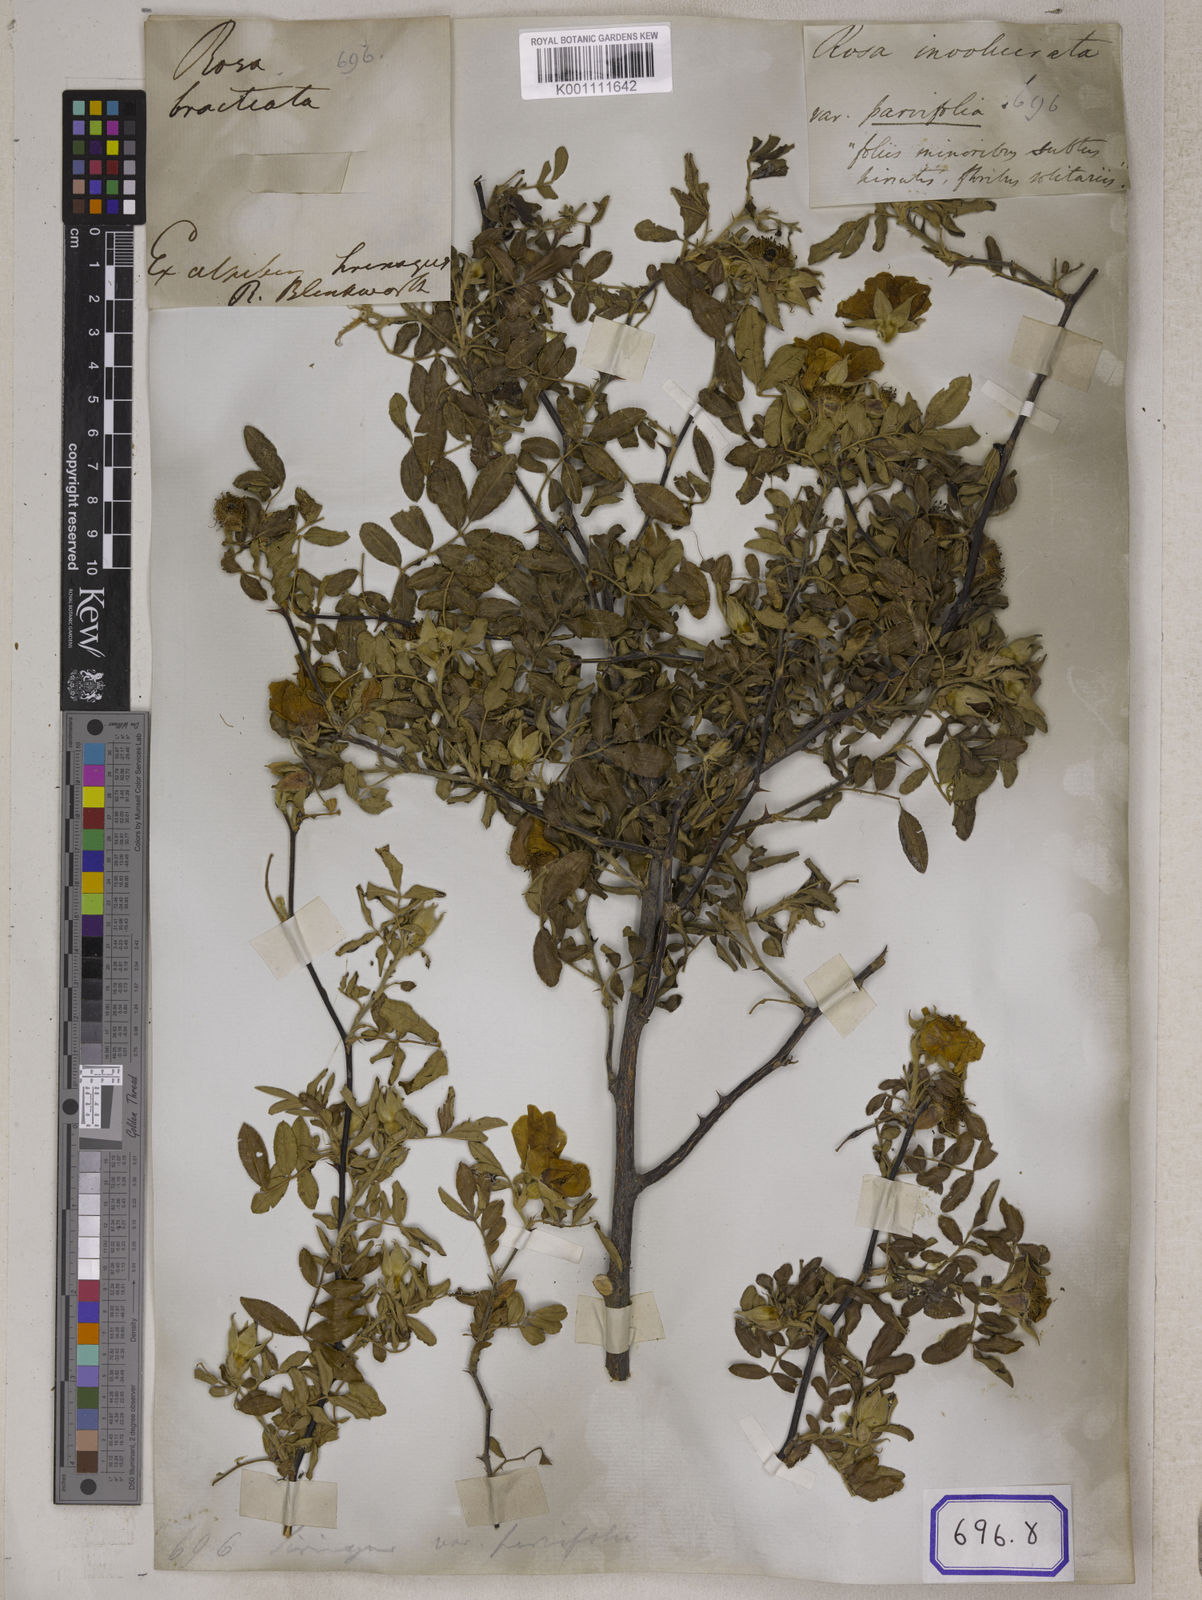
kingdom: Plantae
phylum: Tracheophyta
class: Magnoliopsida
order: Rosales
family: Rosaceae
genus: Rosa
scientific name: Rosa
